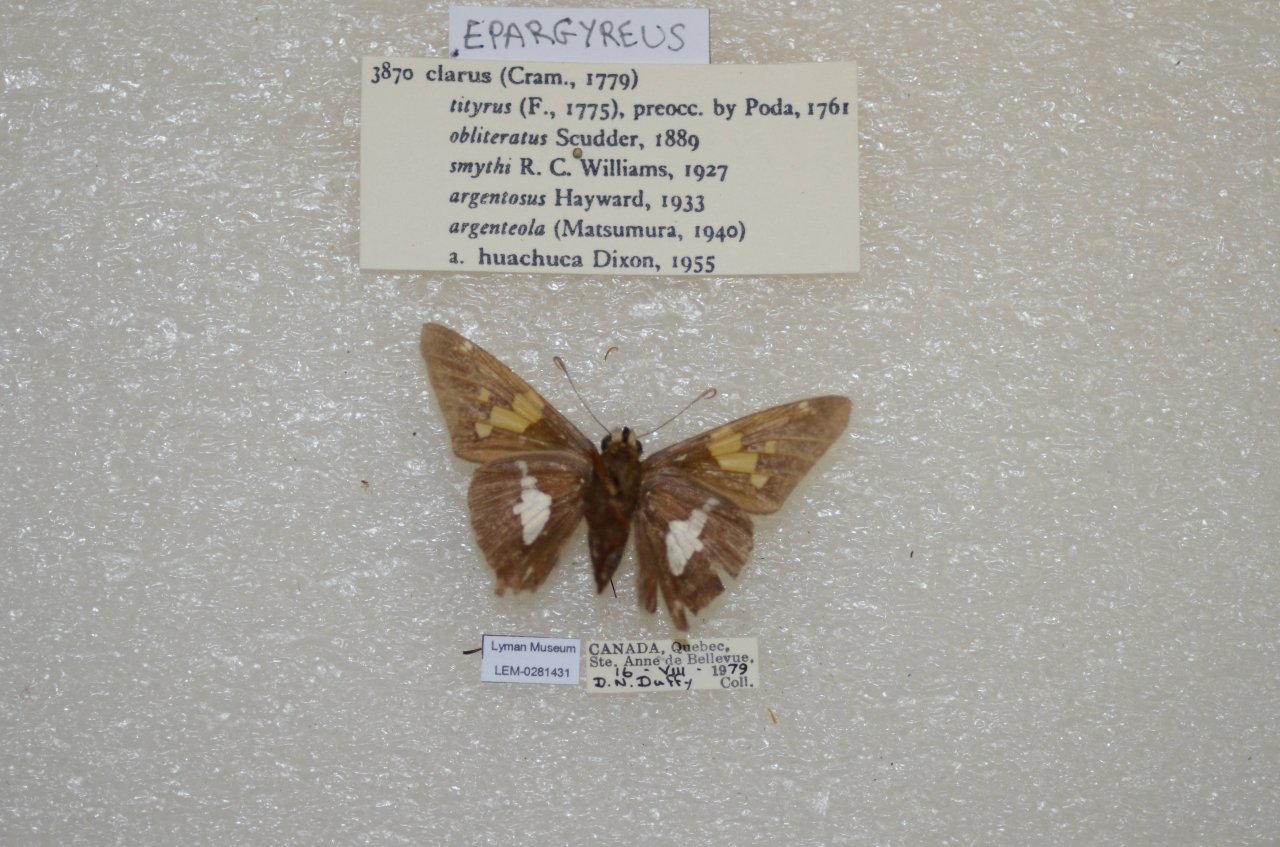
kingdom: Animalia
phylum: Arthropoda
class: Insecta
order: Lepidoptera
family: Hesperiidae
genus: Epargyreus
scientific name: Epargyreus clarus
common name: Silver-spotted Skipper
